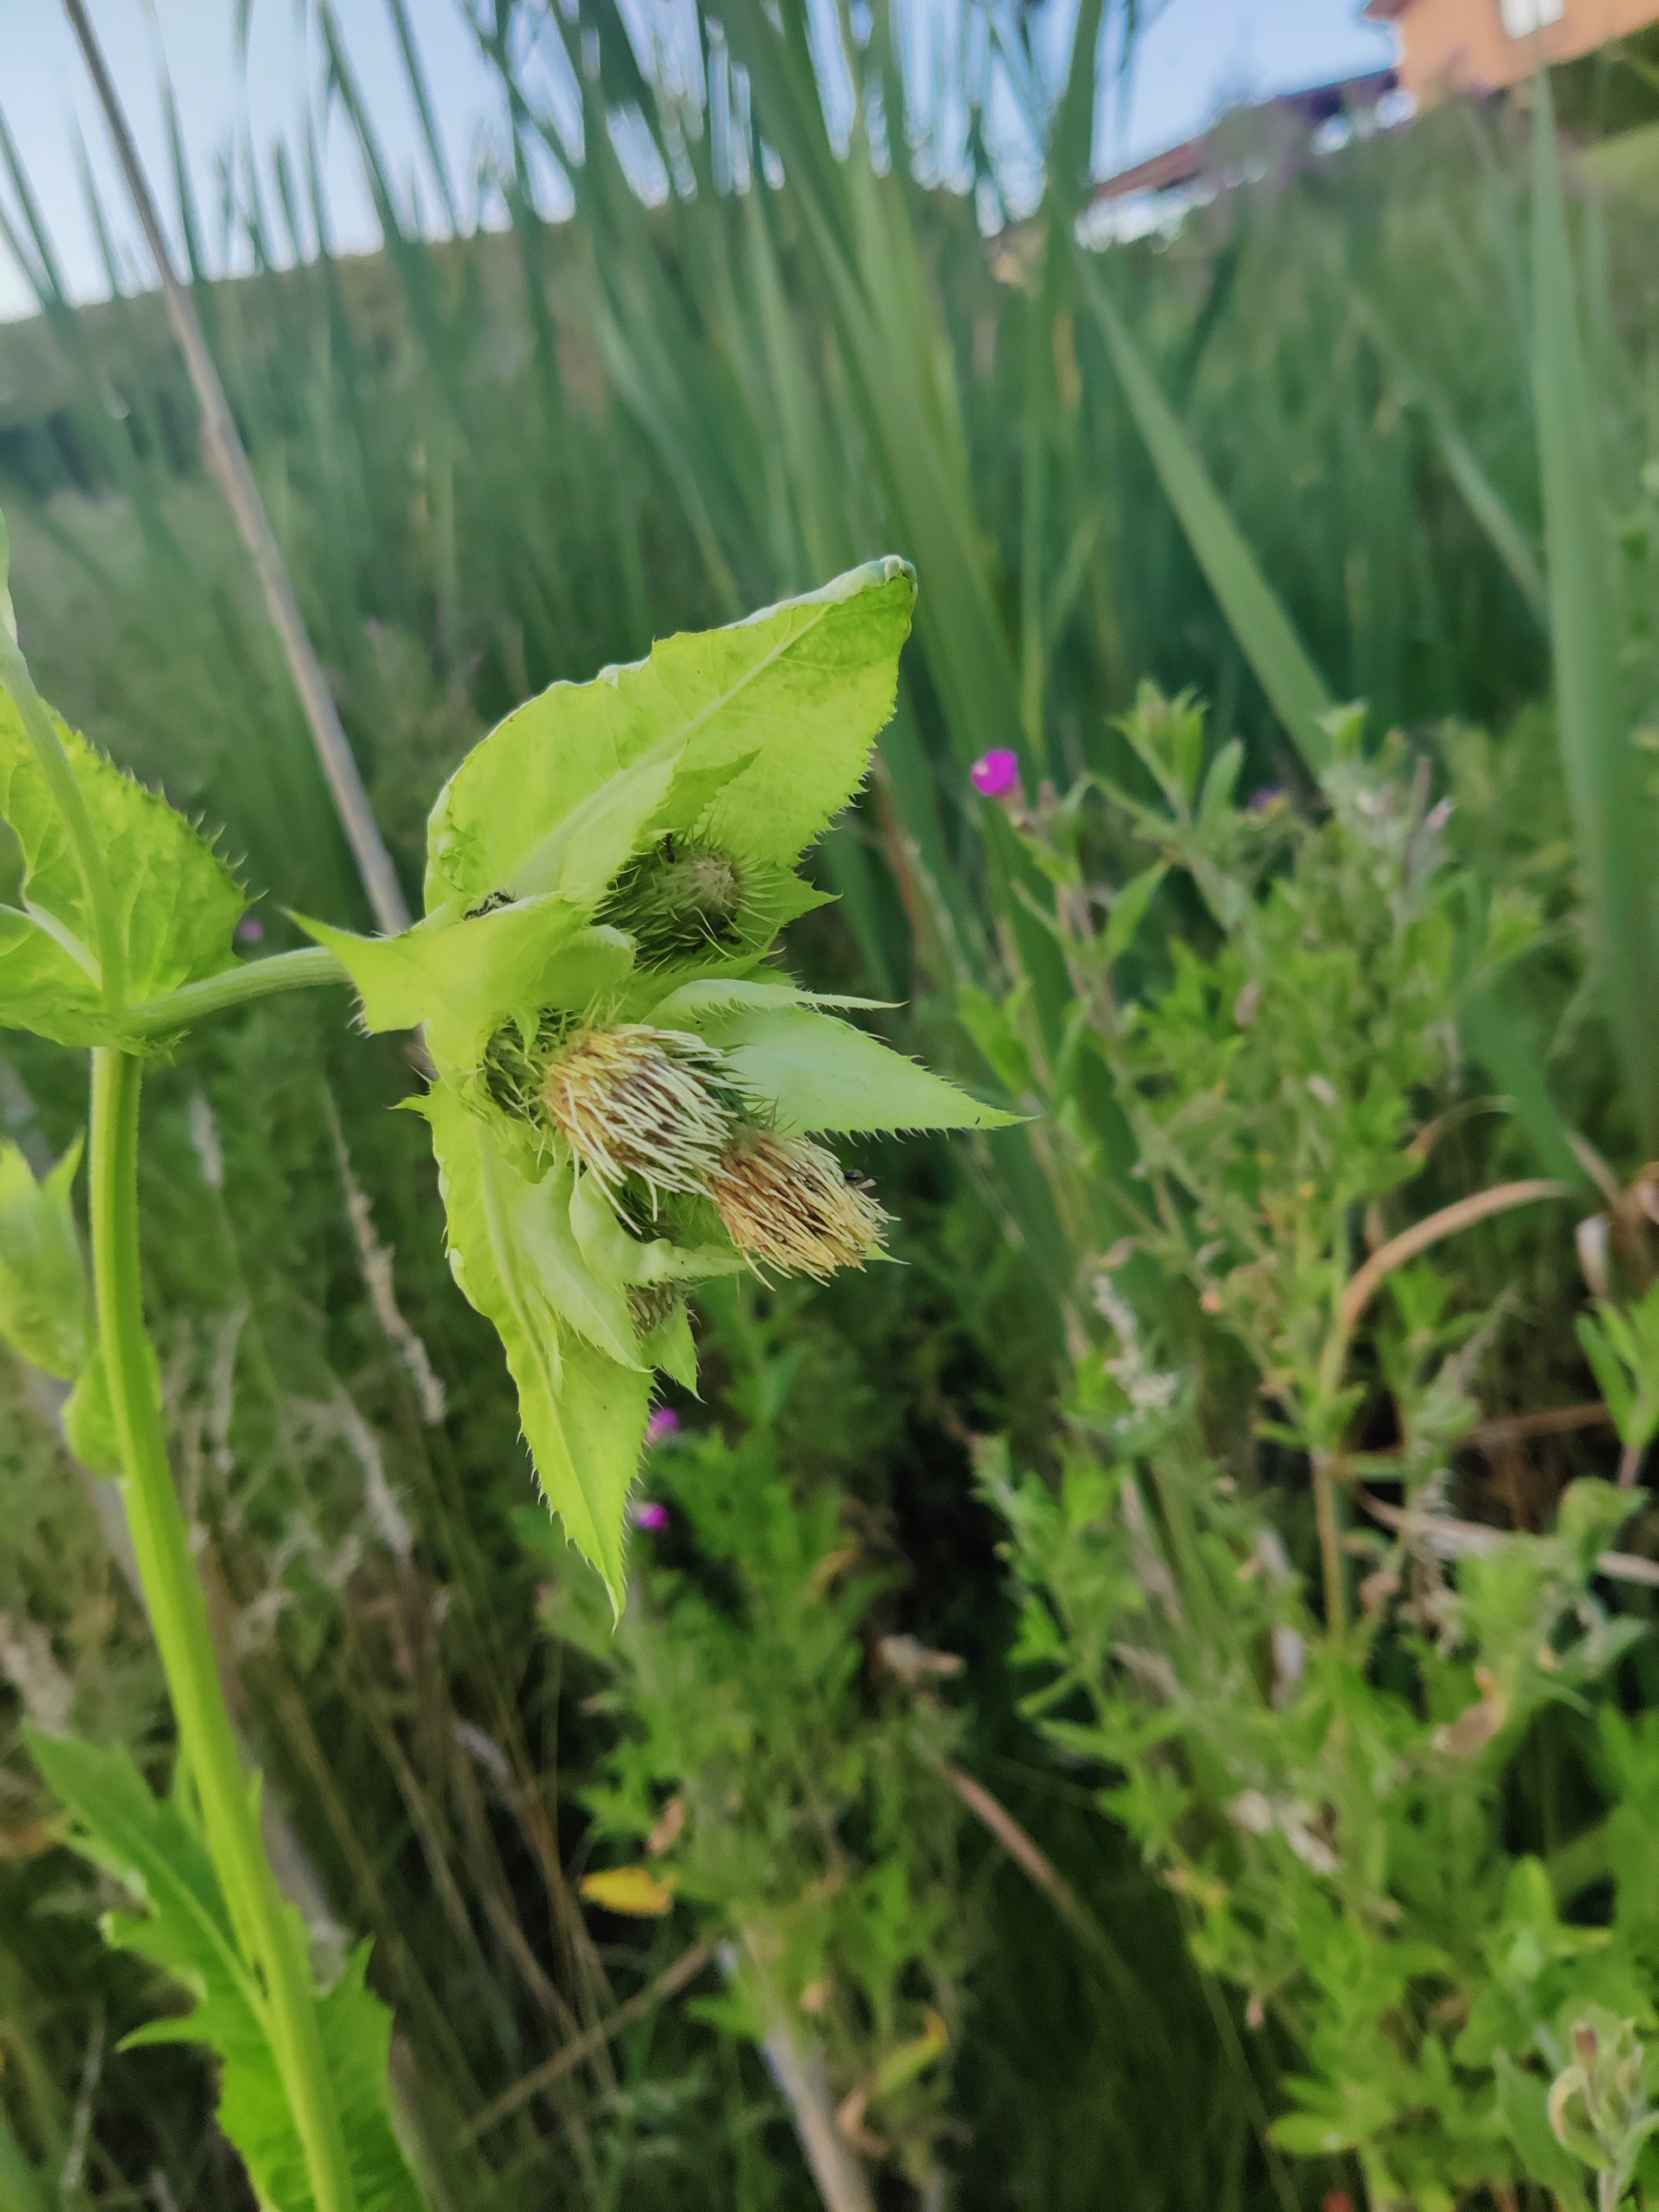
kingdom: Plantae
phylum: Tracheophyta
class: Magnoliopsida
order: Asterales
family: Asteraceae
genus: Cirsium
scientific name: Cirsium oleraceum
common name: Kål-tidsel
